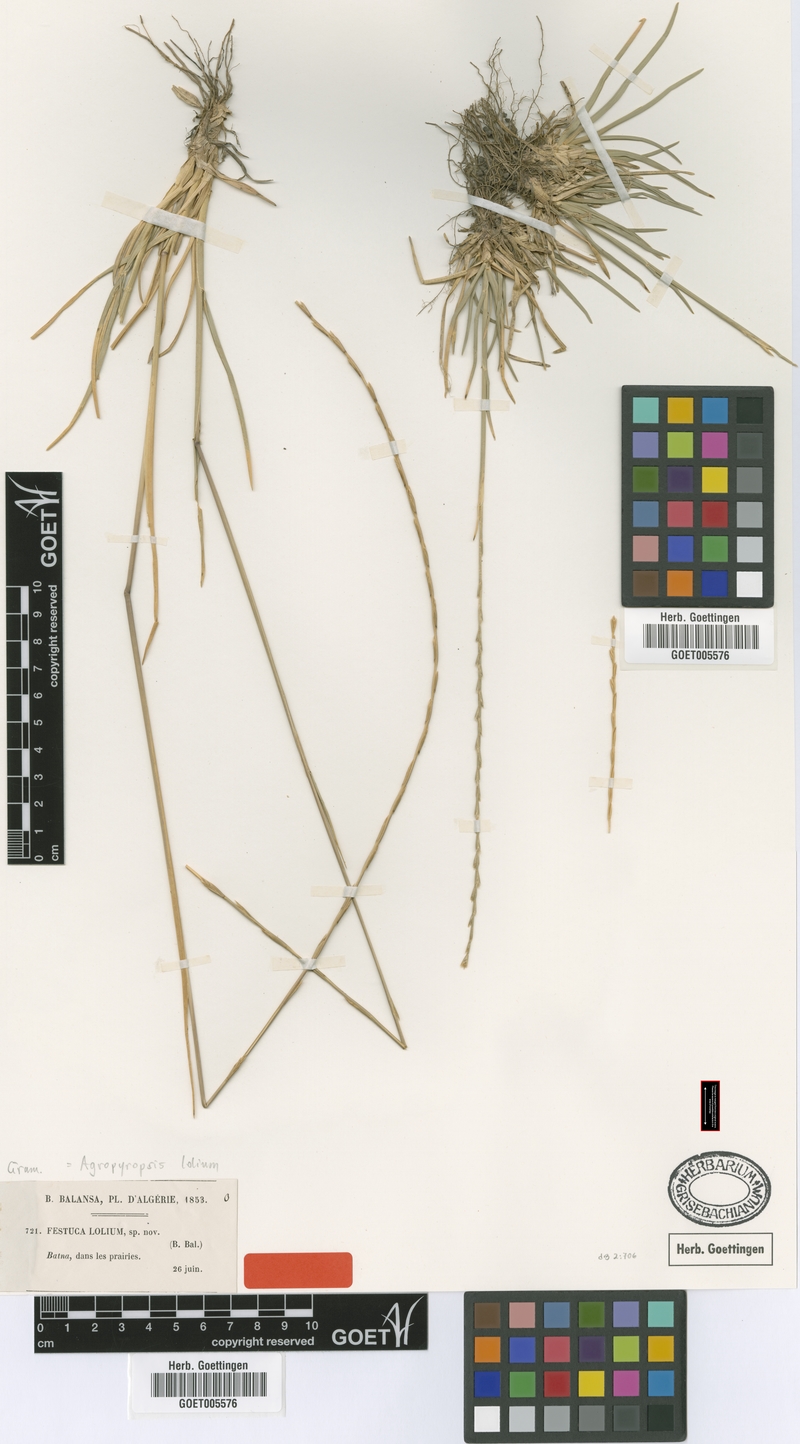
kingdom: Plantae
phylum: Tracheophyta
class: Liliopsida
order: Poales
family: Poaceae
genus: Agropyropsis
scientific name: Agropyropsis lolium
